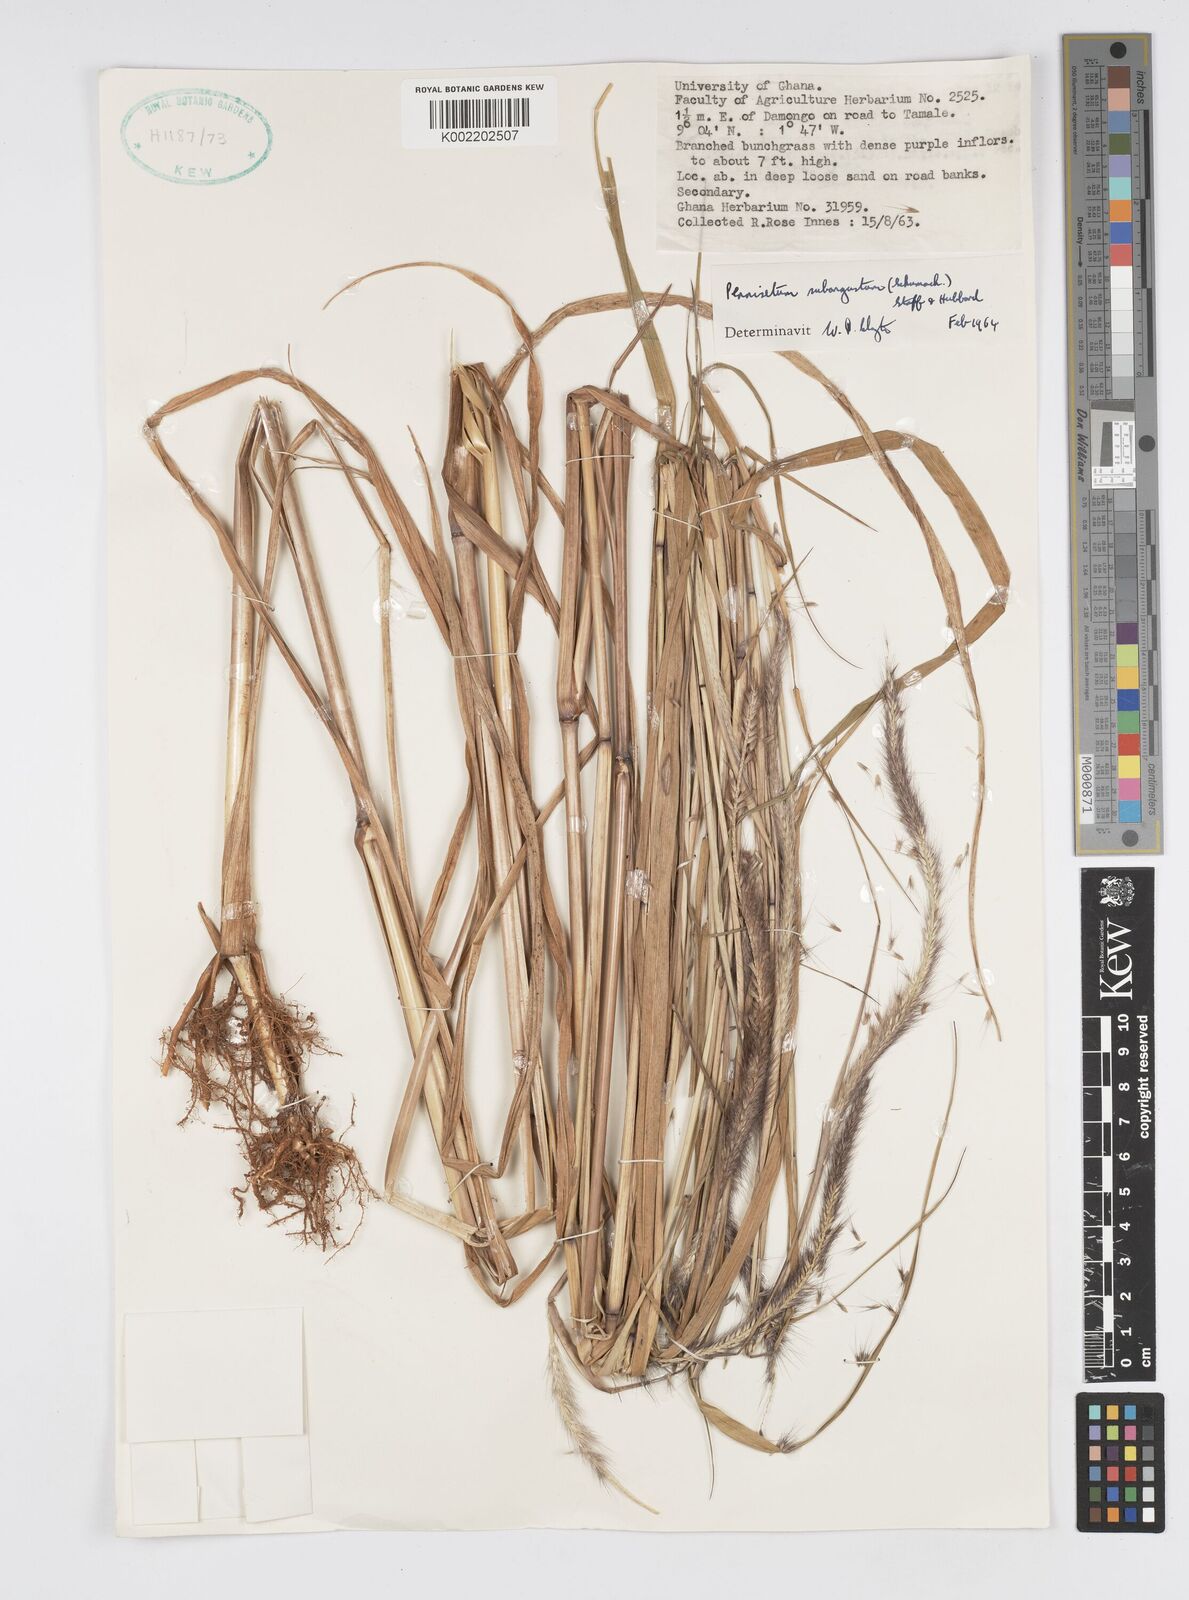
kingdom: Plantae
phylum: Tracheophyta
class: Liliopsida
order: Poales
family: Poaceae
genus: Setaria
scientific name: Setaria parviflora
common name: Knotroot bristle-grass
